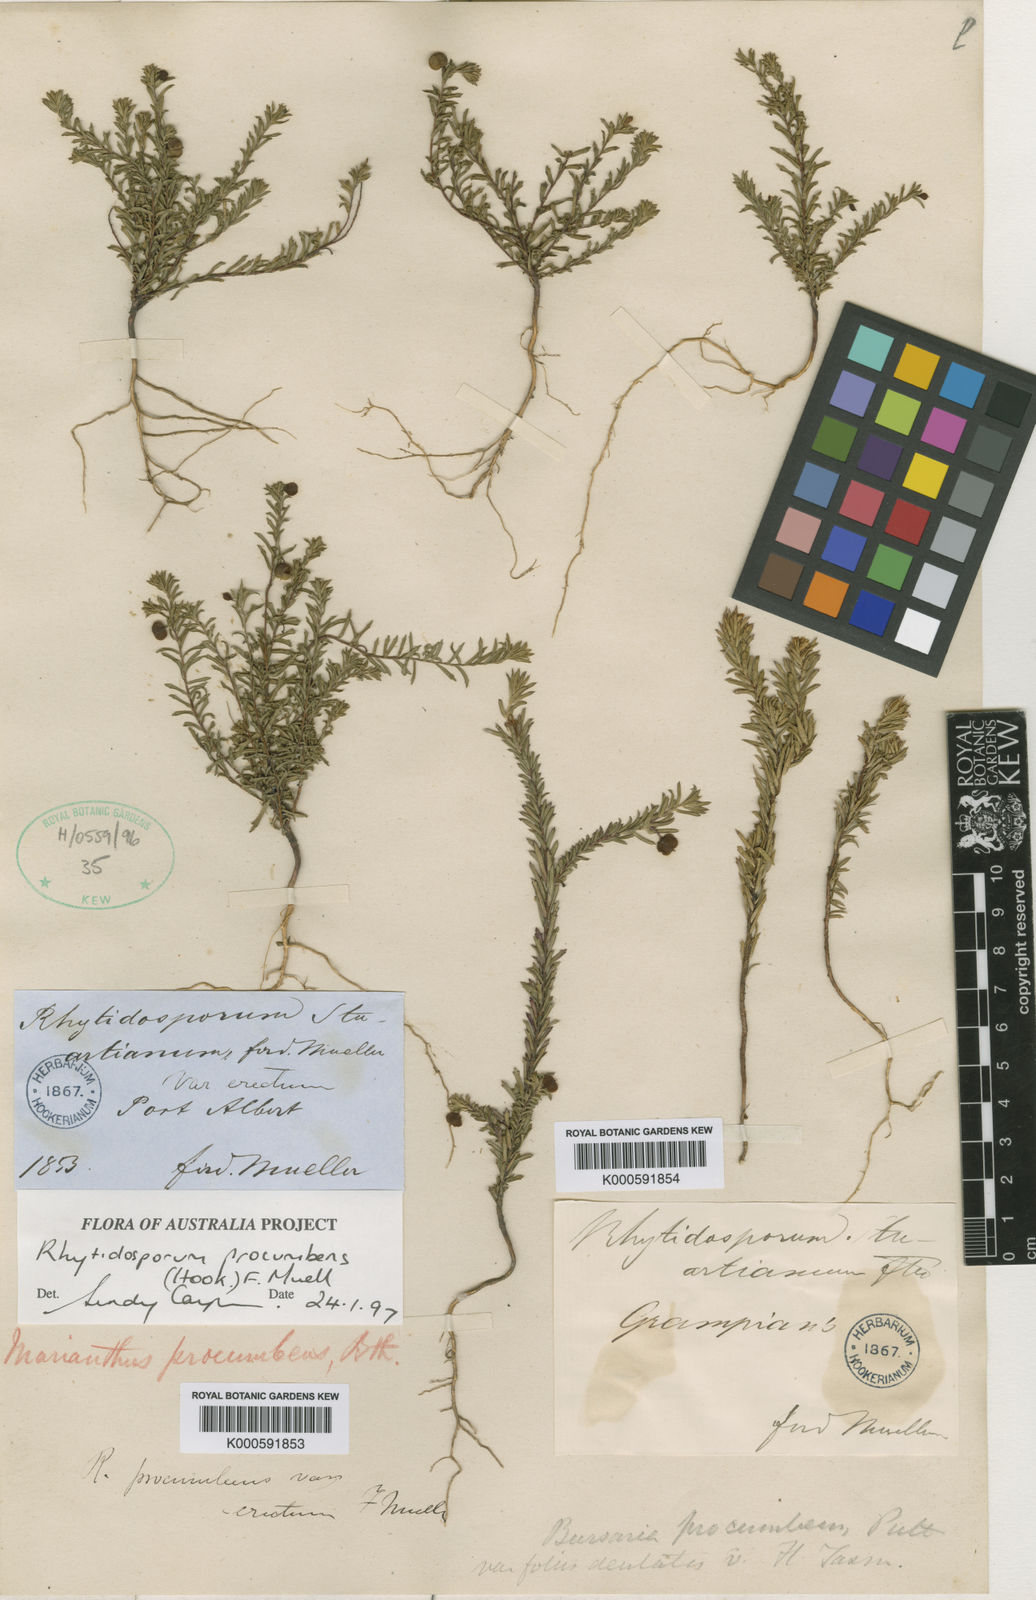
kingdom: Plantae
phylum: Tracheophyta
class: Magnoliopsida
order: Apiales
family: Pittosporaceae
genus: Marianthus
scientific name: Marianthus
